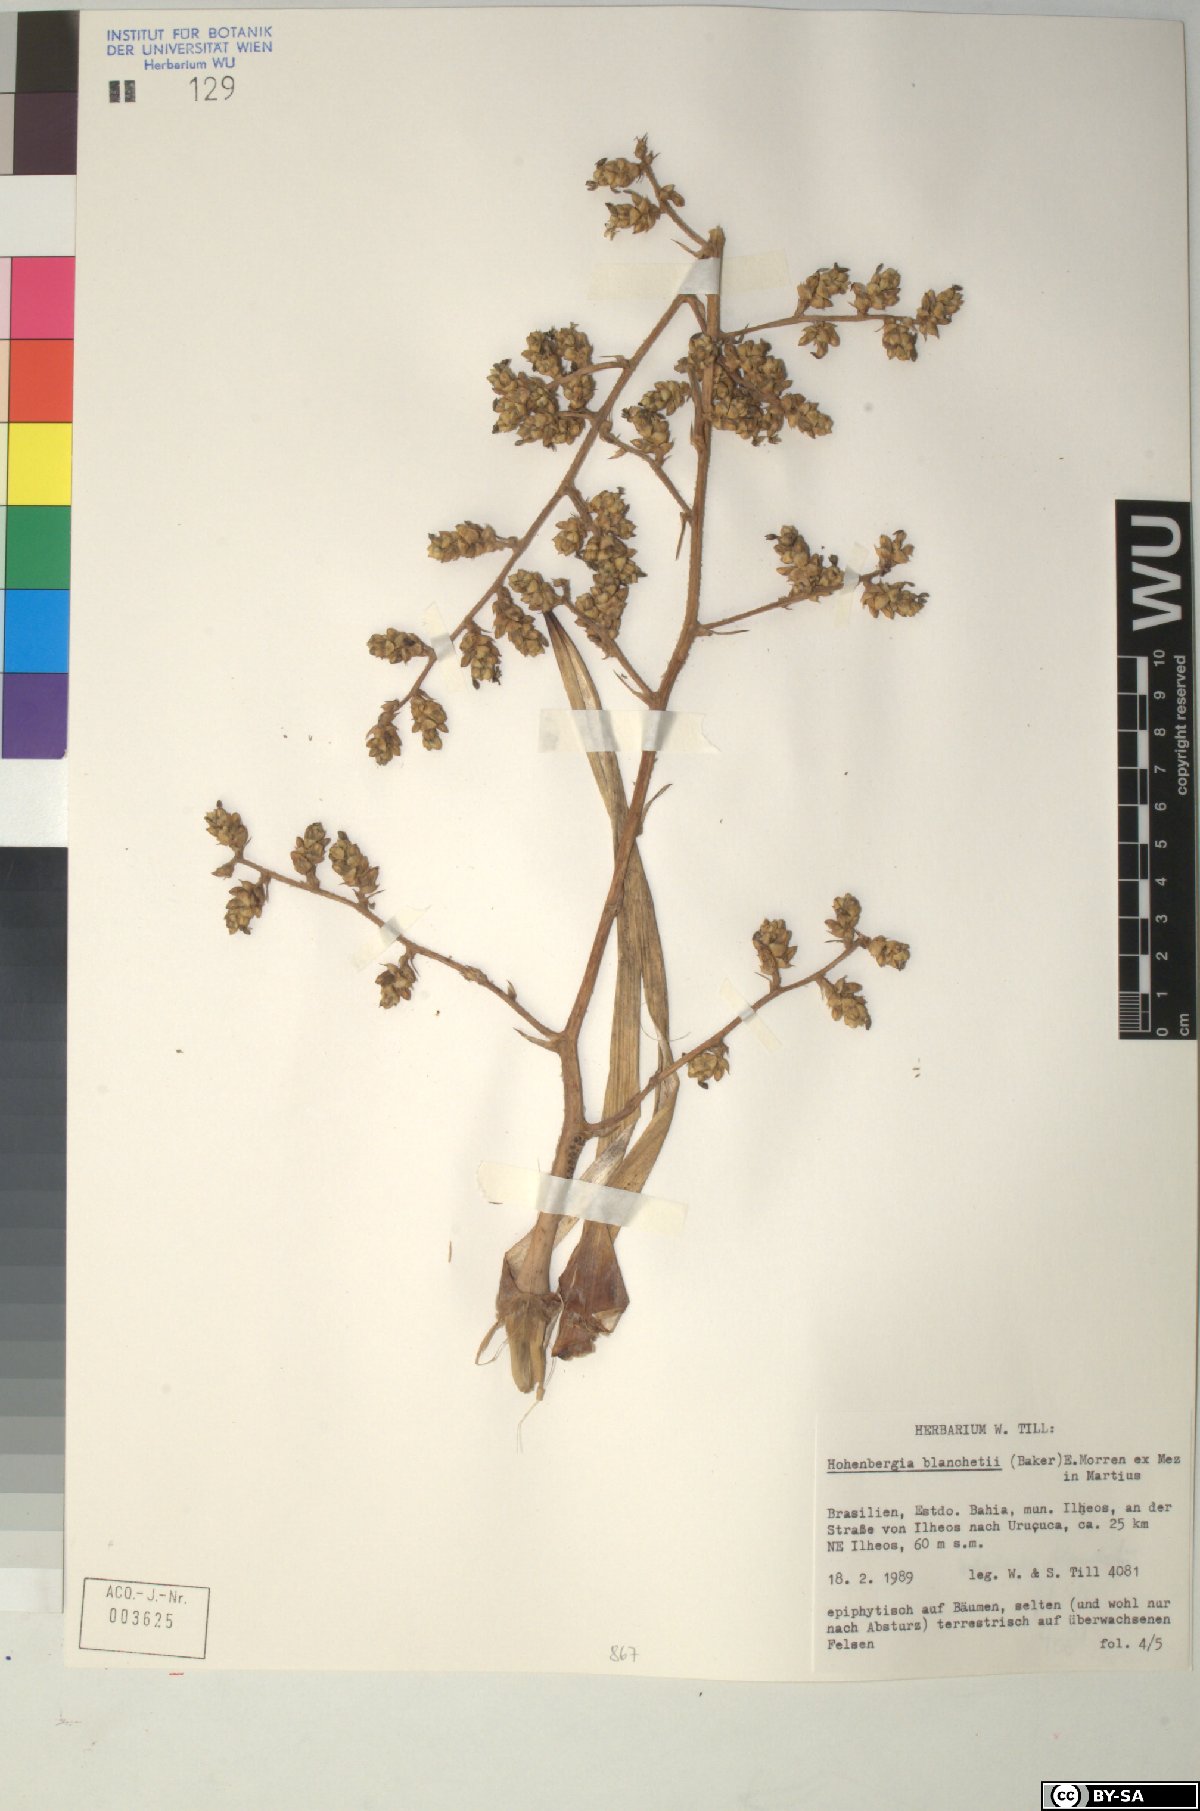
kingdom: Plantae
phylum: Tracheophyta
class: Liliopsida
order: Poales
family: Bromeliaceae
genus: Hohenbergia
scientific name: Hohenbergia blanchetii
